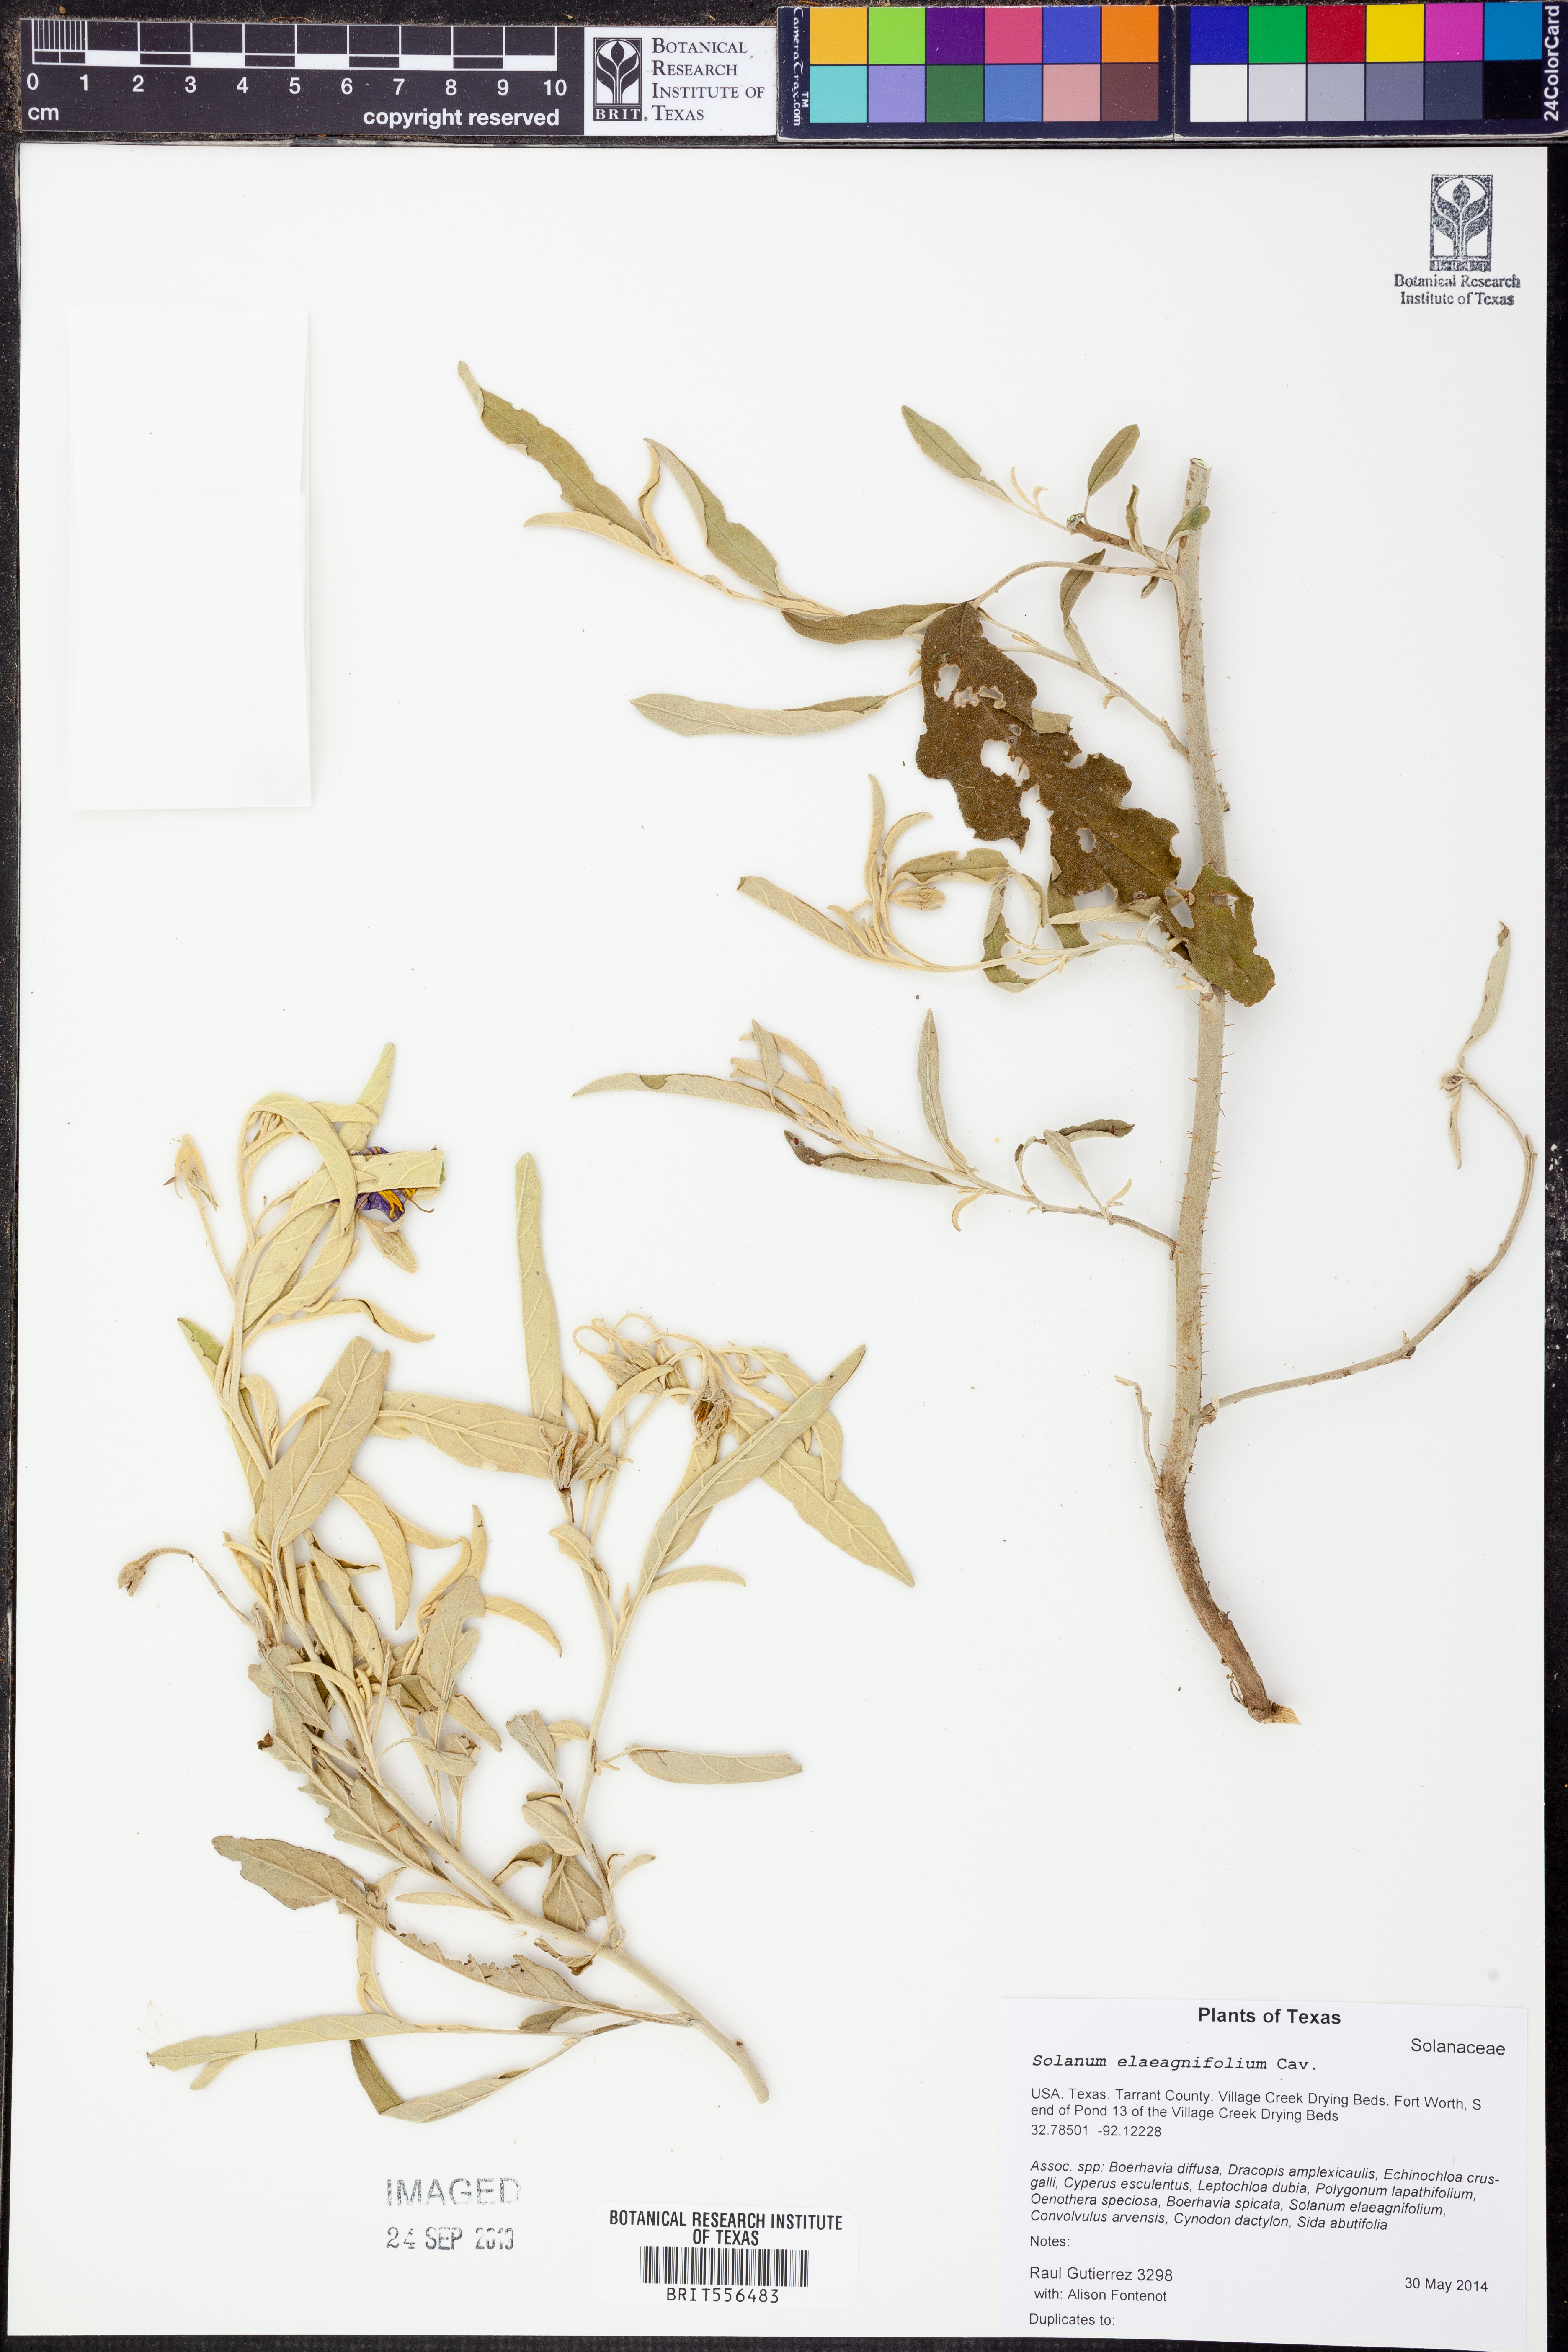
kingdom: Plantae
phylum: Tracheophyta
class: Magnoliopsida
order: Solanales
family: Solanaceae
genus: Solanum
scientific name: Solanum elaeagnifolium
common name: Silverleaf nightshade
